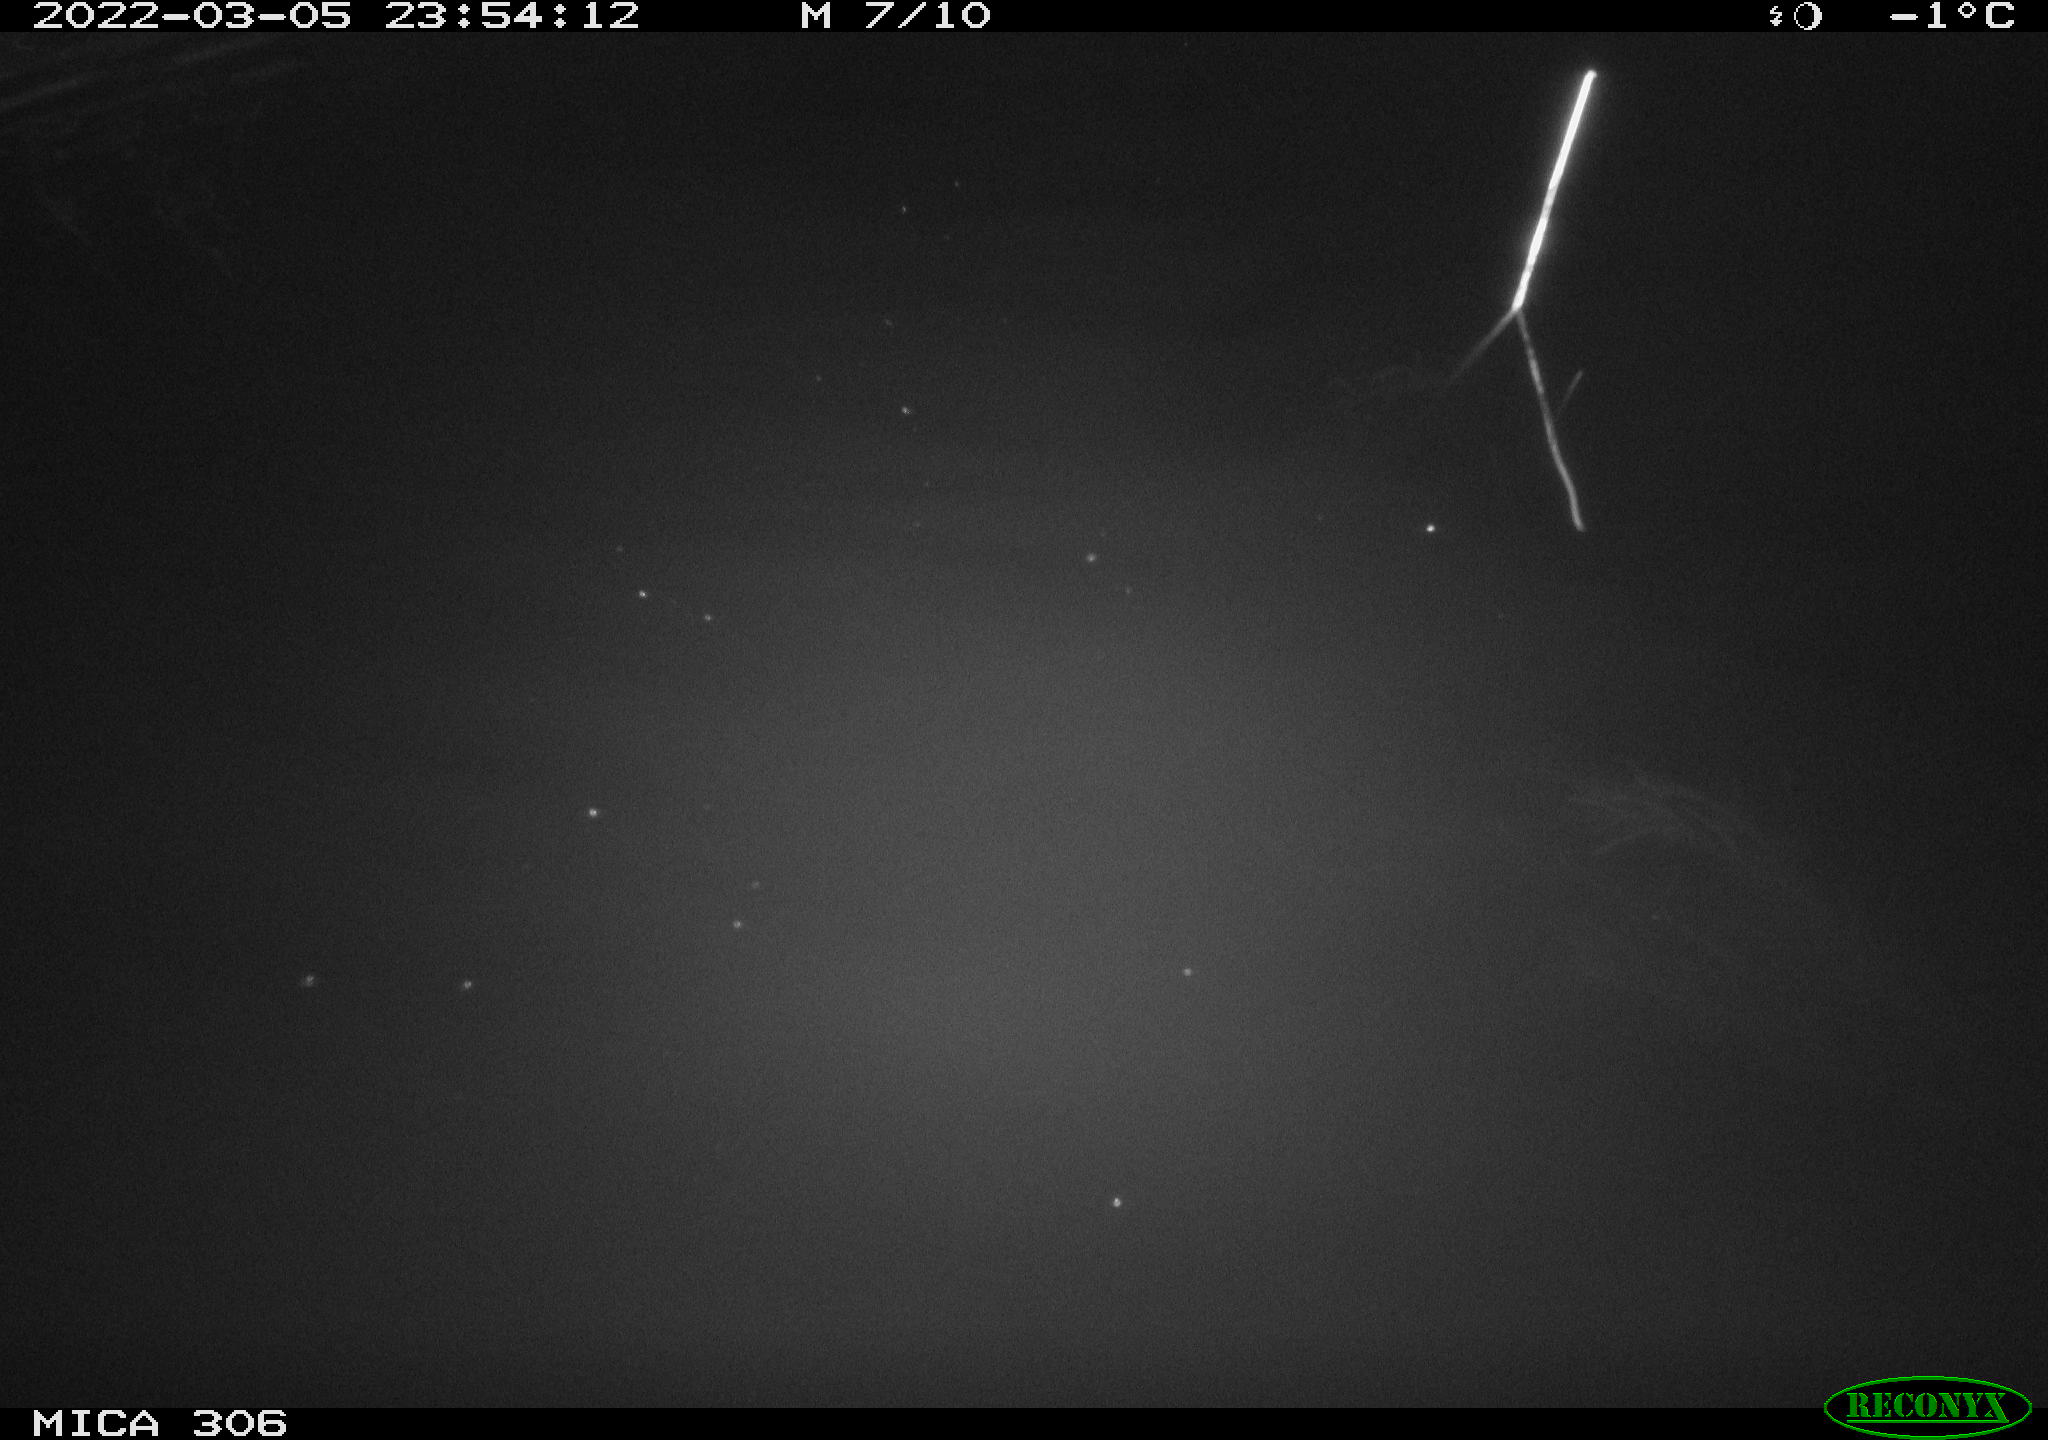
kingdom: Animalia
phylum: Chordata
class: Mammalia
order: Rodentia
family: Cricetidae
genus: Ondatra
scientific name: Ondatra zibethicus
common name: Muskrat
